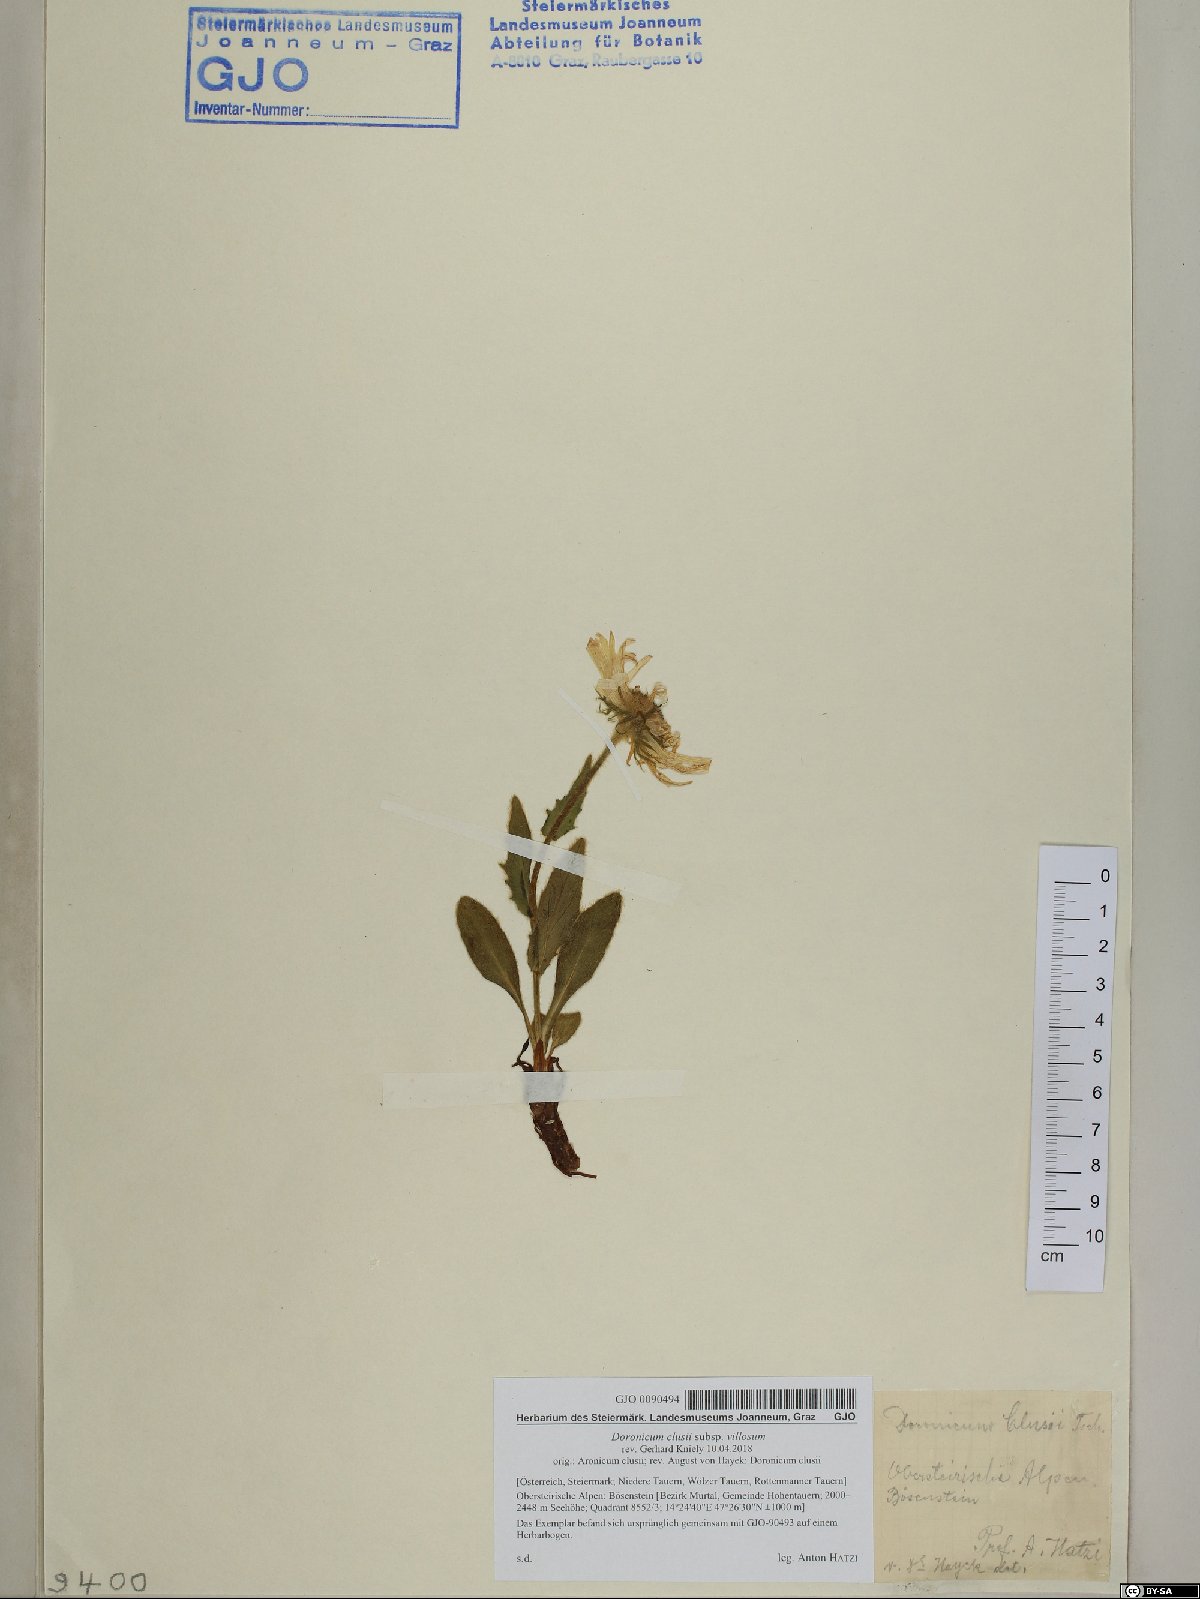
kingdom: Plantae
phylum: Tracheophyta
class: Magnoliopsida
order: Asterales
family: Asteraceae
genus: Doronicum
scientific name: Doronicum clusii
